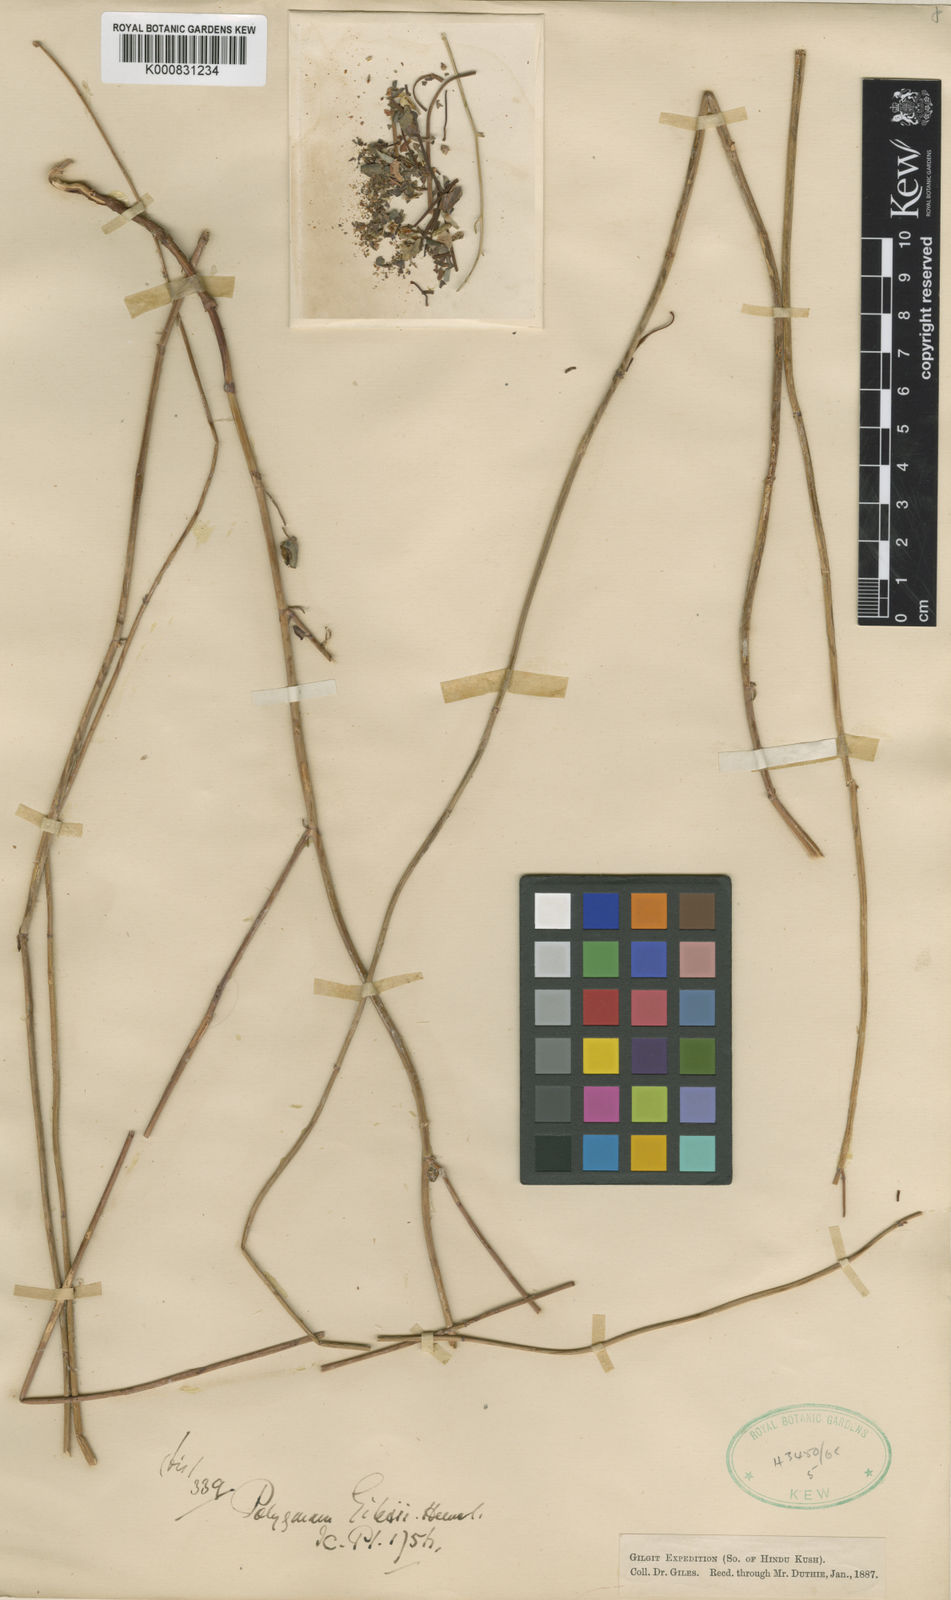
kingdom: Plantae
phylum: Tracheophyta
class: Magnoliopsida
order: Caryophyllales
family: Polygonaceae
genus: Fagopyrum
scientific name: Fagopyrum gilesii
